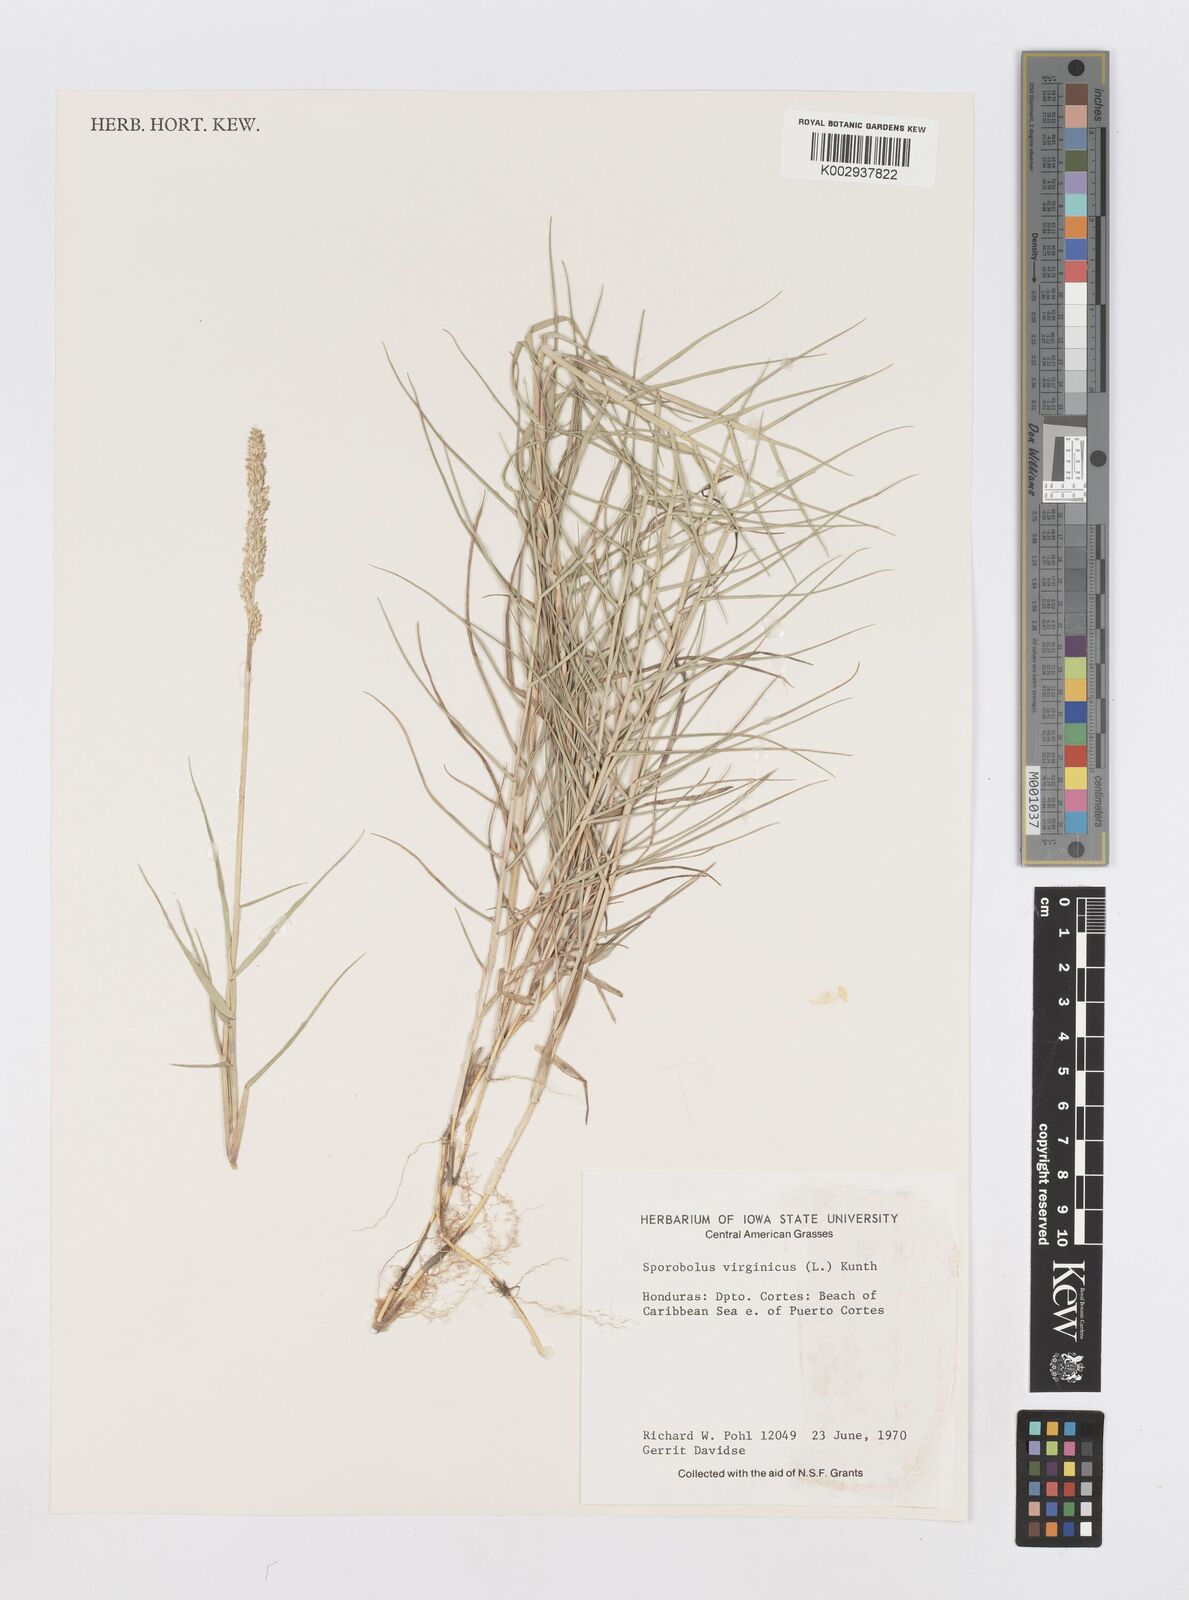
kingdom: Plantae
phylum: Tracheophyta
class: Liliopsida
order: Poales
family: Poaceae
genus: Sporobolus
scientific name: Sporobolus virginicus
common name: Beach dropseed
